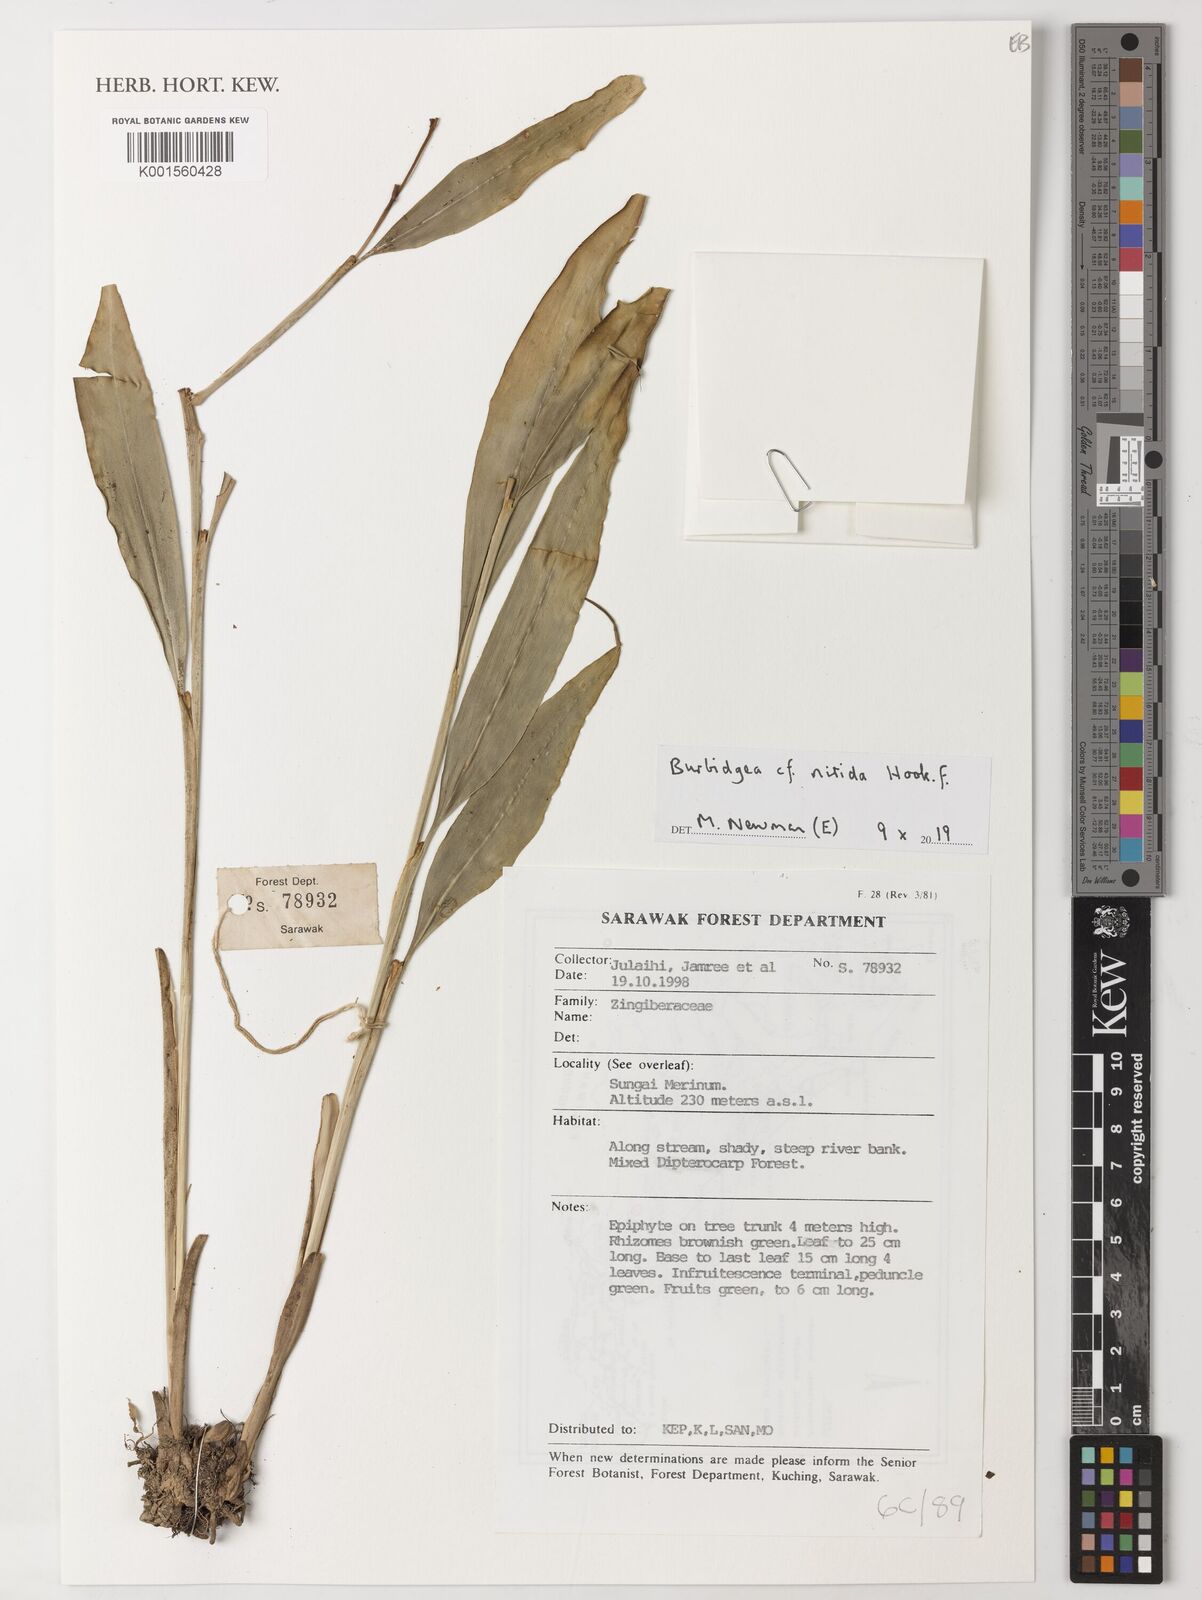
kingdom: Plantae
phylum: Tracheophyta
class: Liliopsida
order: Zingiberales
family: Zingiberaceae
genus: Burbidgea
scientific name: Burbidgea nitida
